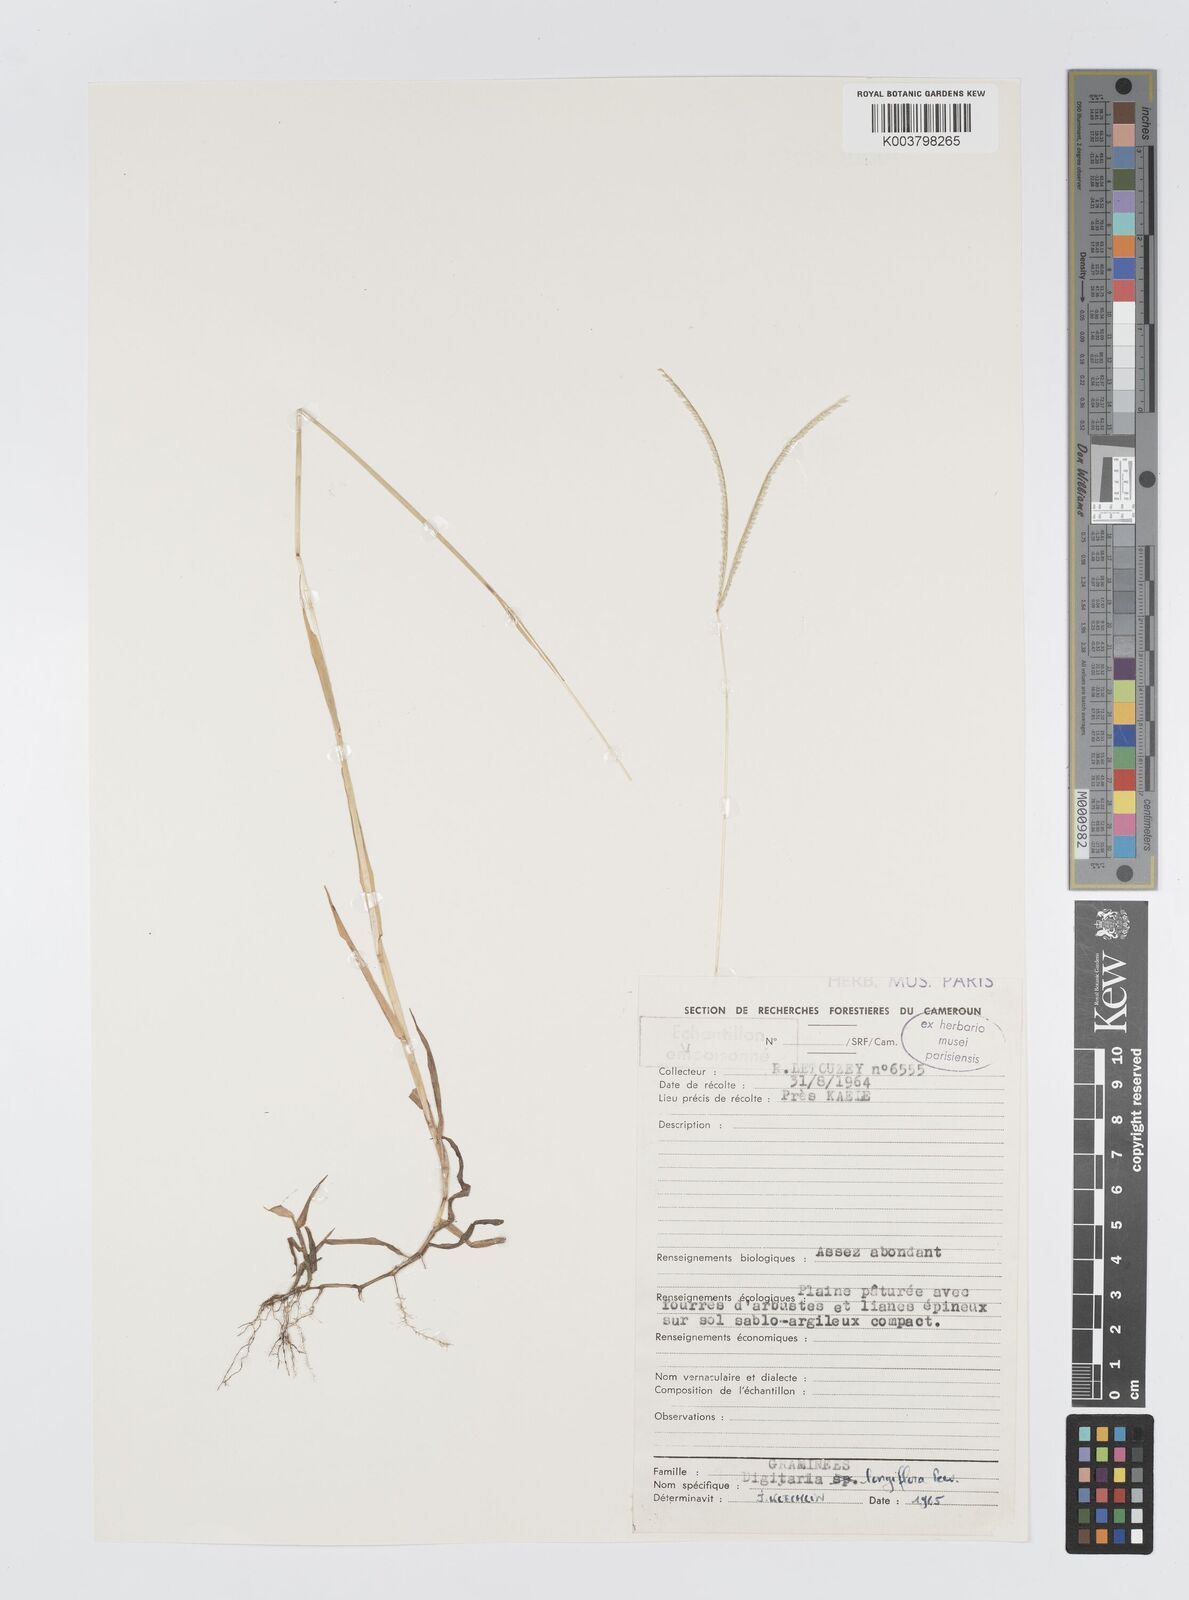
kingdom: Plantae
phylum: Tracheophyta
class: Liliopsida
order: Poales
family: Poaceae
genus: Digitaria
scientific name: Digitaria longiflora
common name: Wire crabgrass
